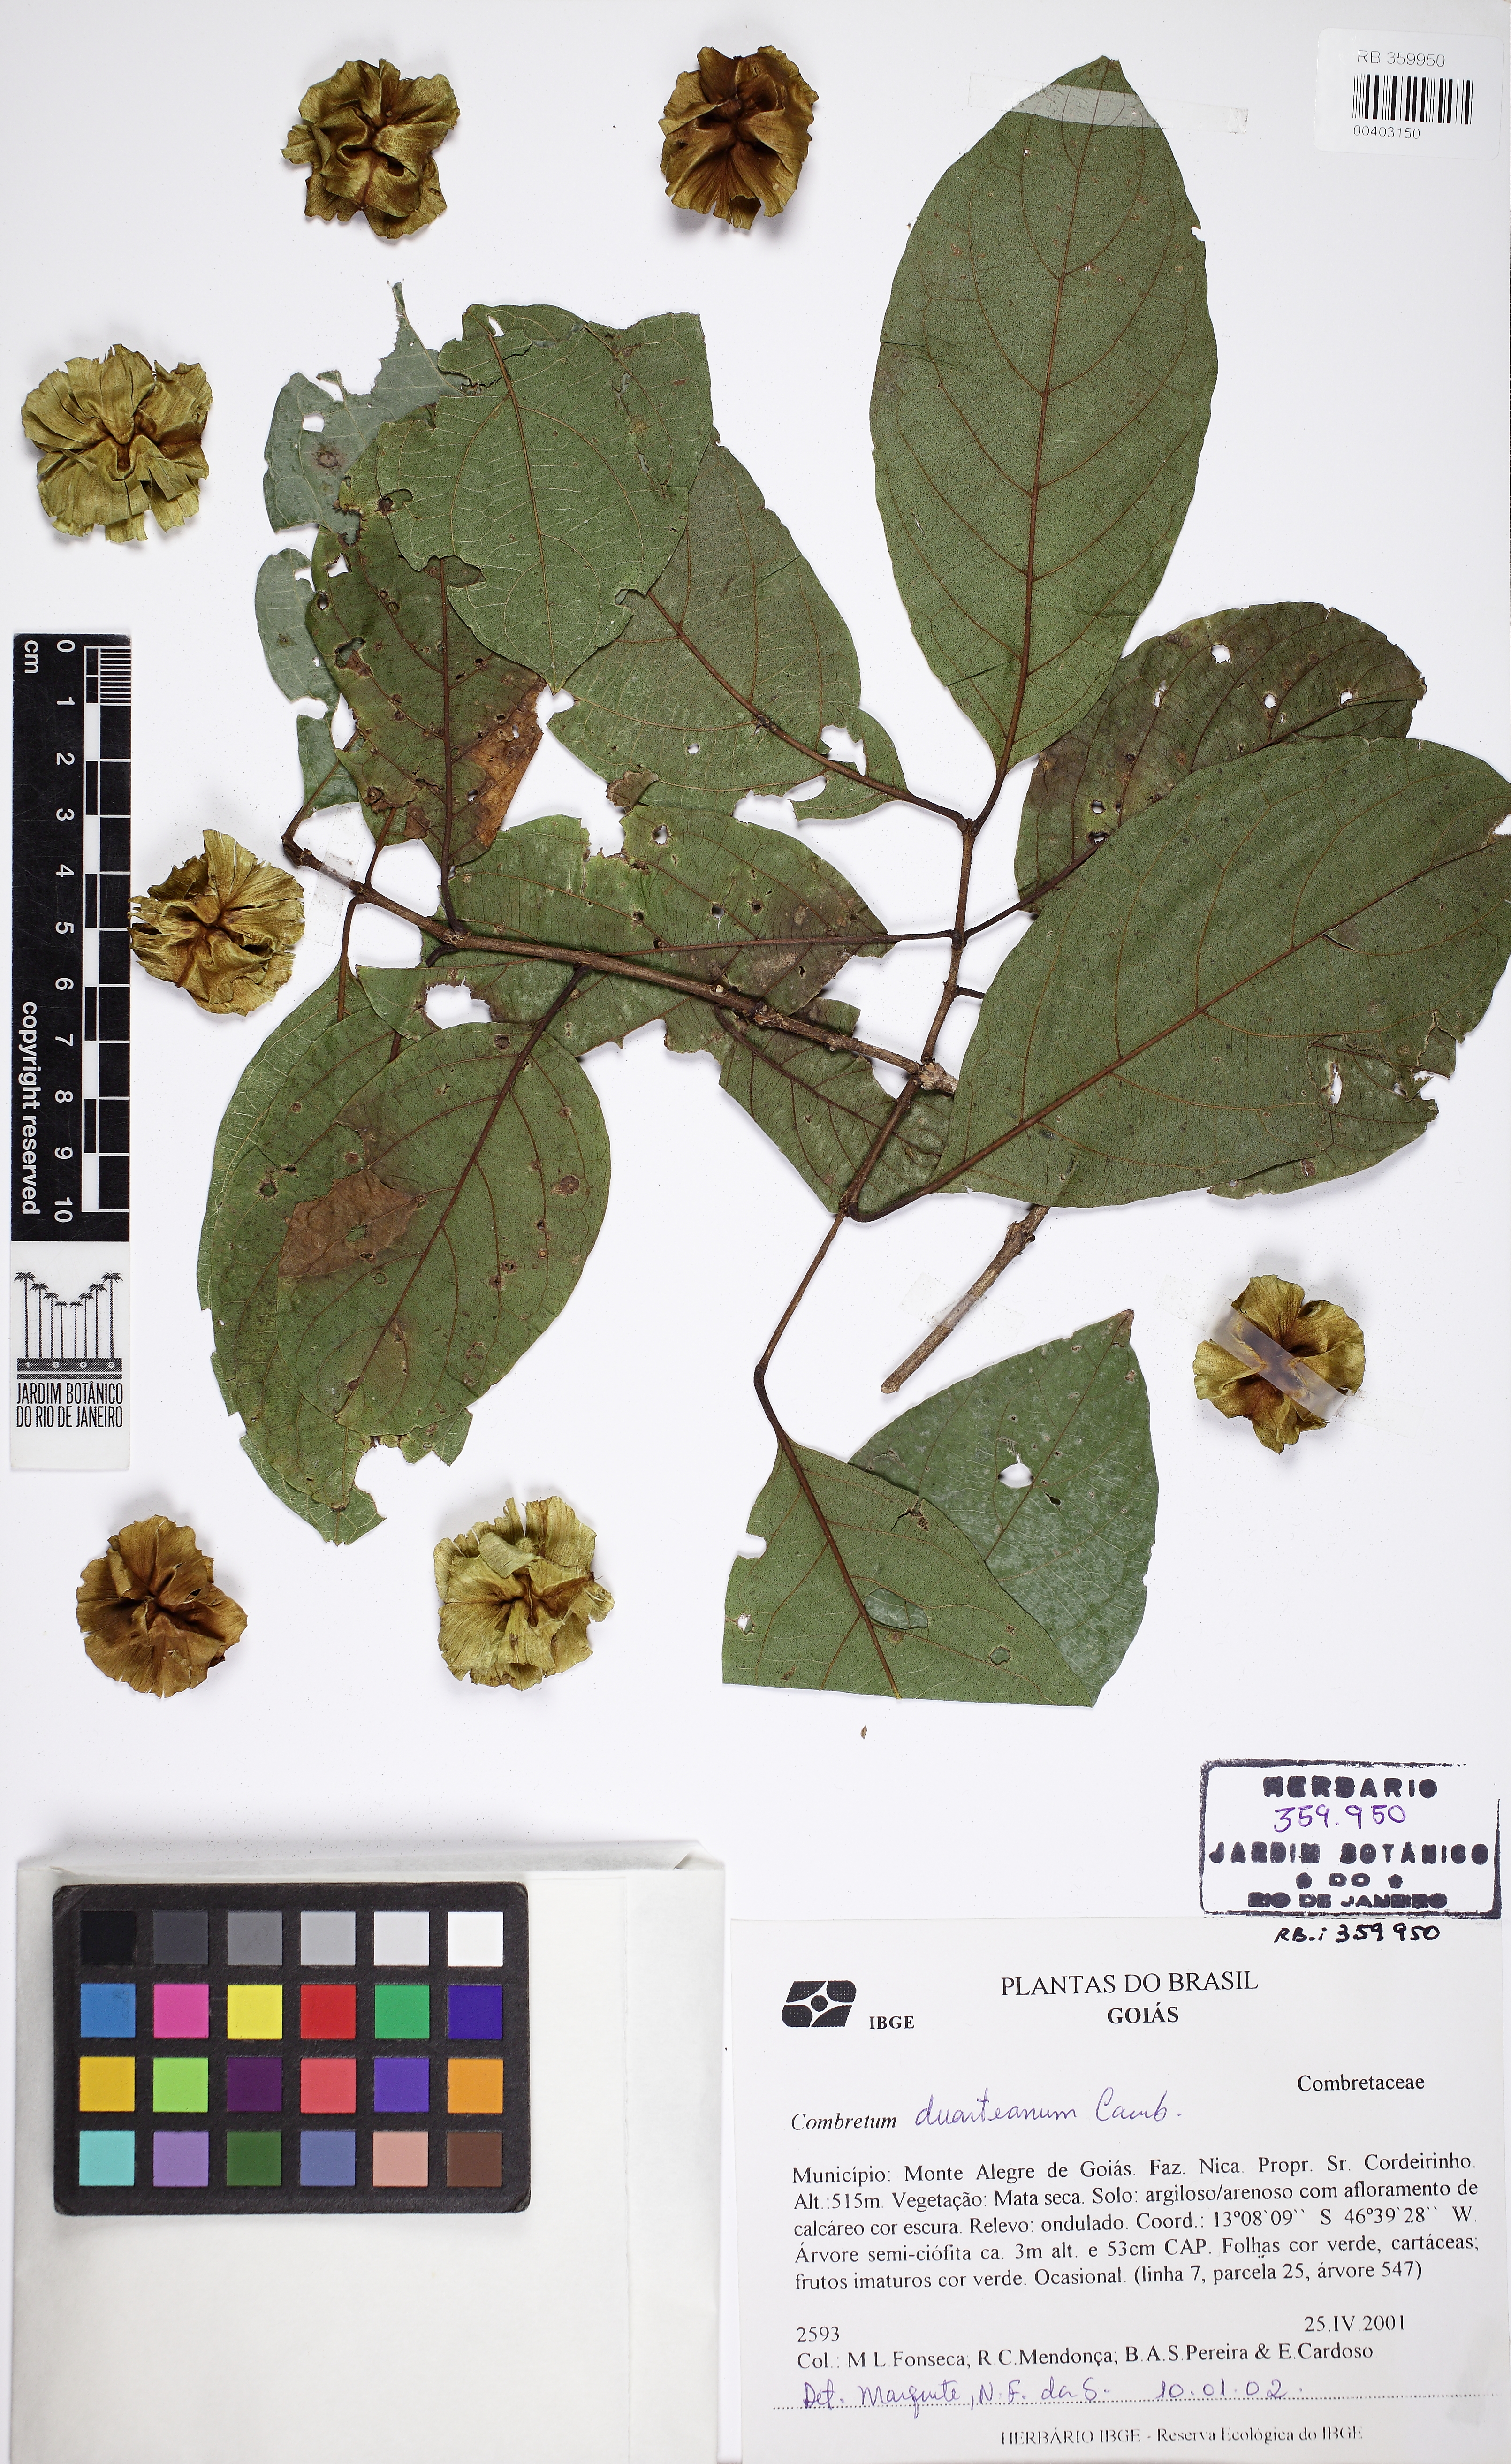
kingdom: Plantae
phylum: Tracheophyta
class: Magnoliopsida
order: Myrtales
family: Combretaceae
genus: Combretum
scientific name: Combretum duarteanum
